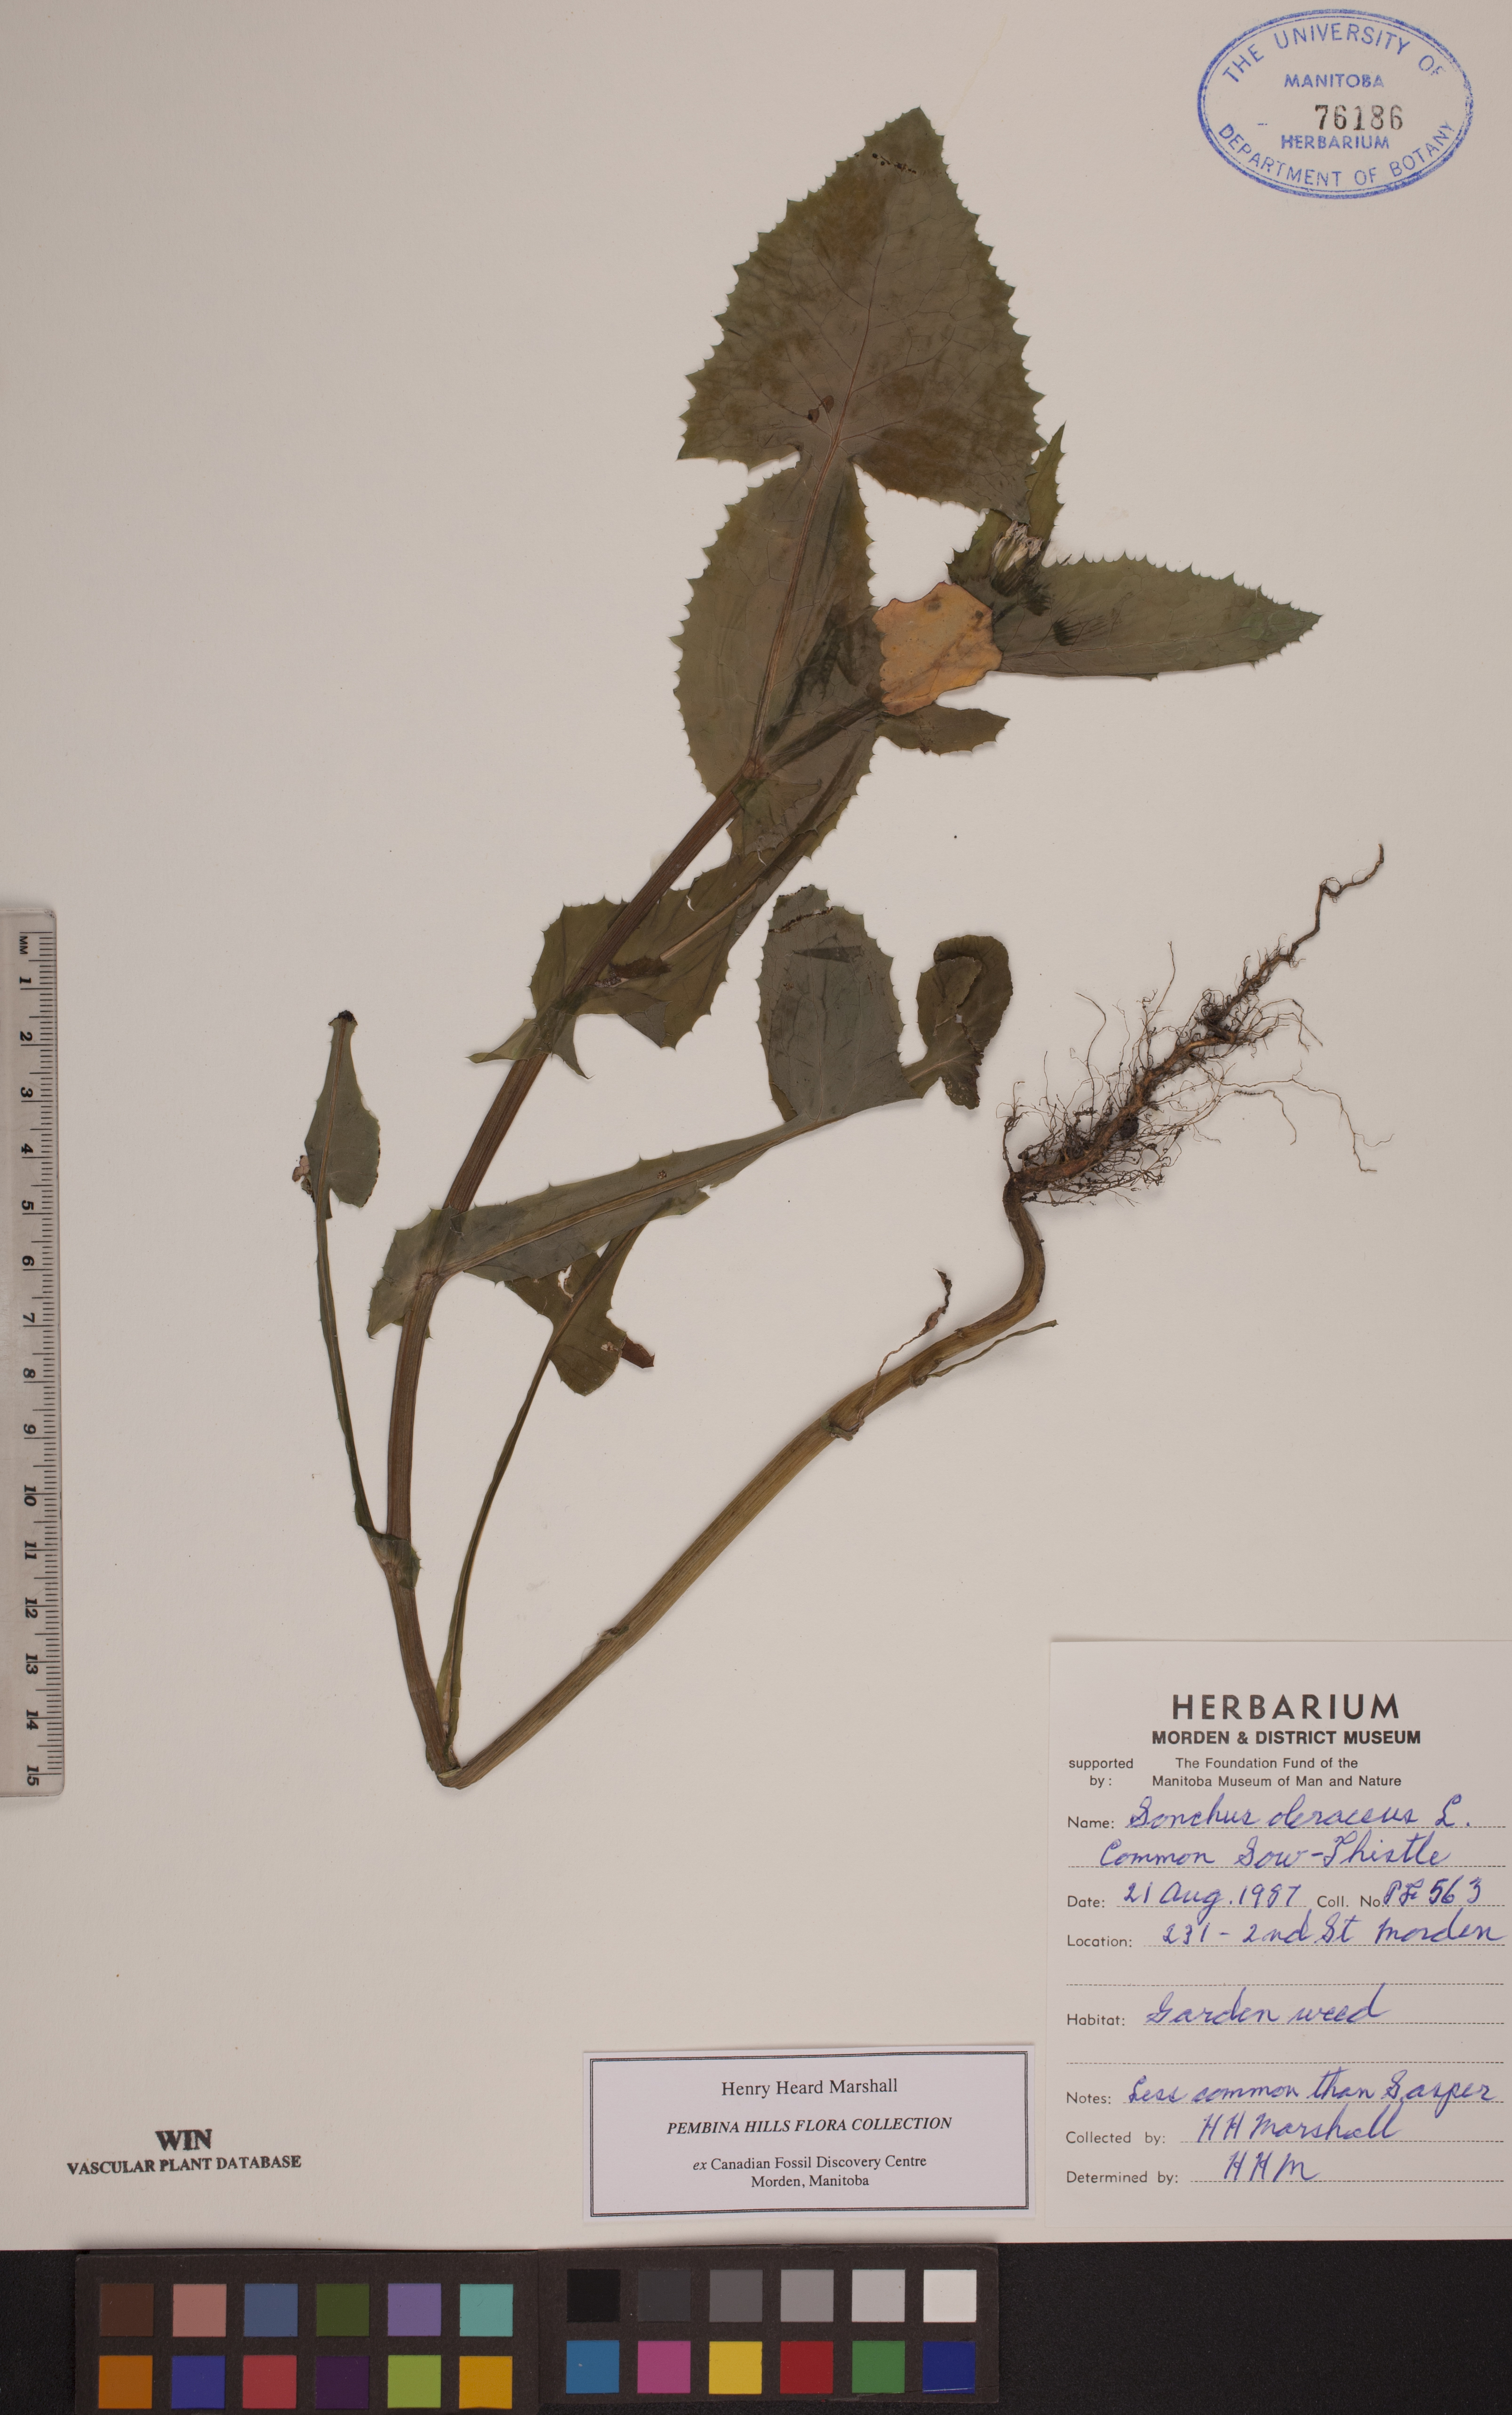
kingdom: Plantae
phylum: Tracheophyta
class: Magnoliopsida
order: Asterales
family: Asteraceae
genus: Sonchus
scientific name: Sonchus oleraceus
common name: Common sowthistle
